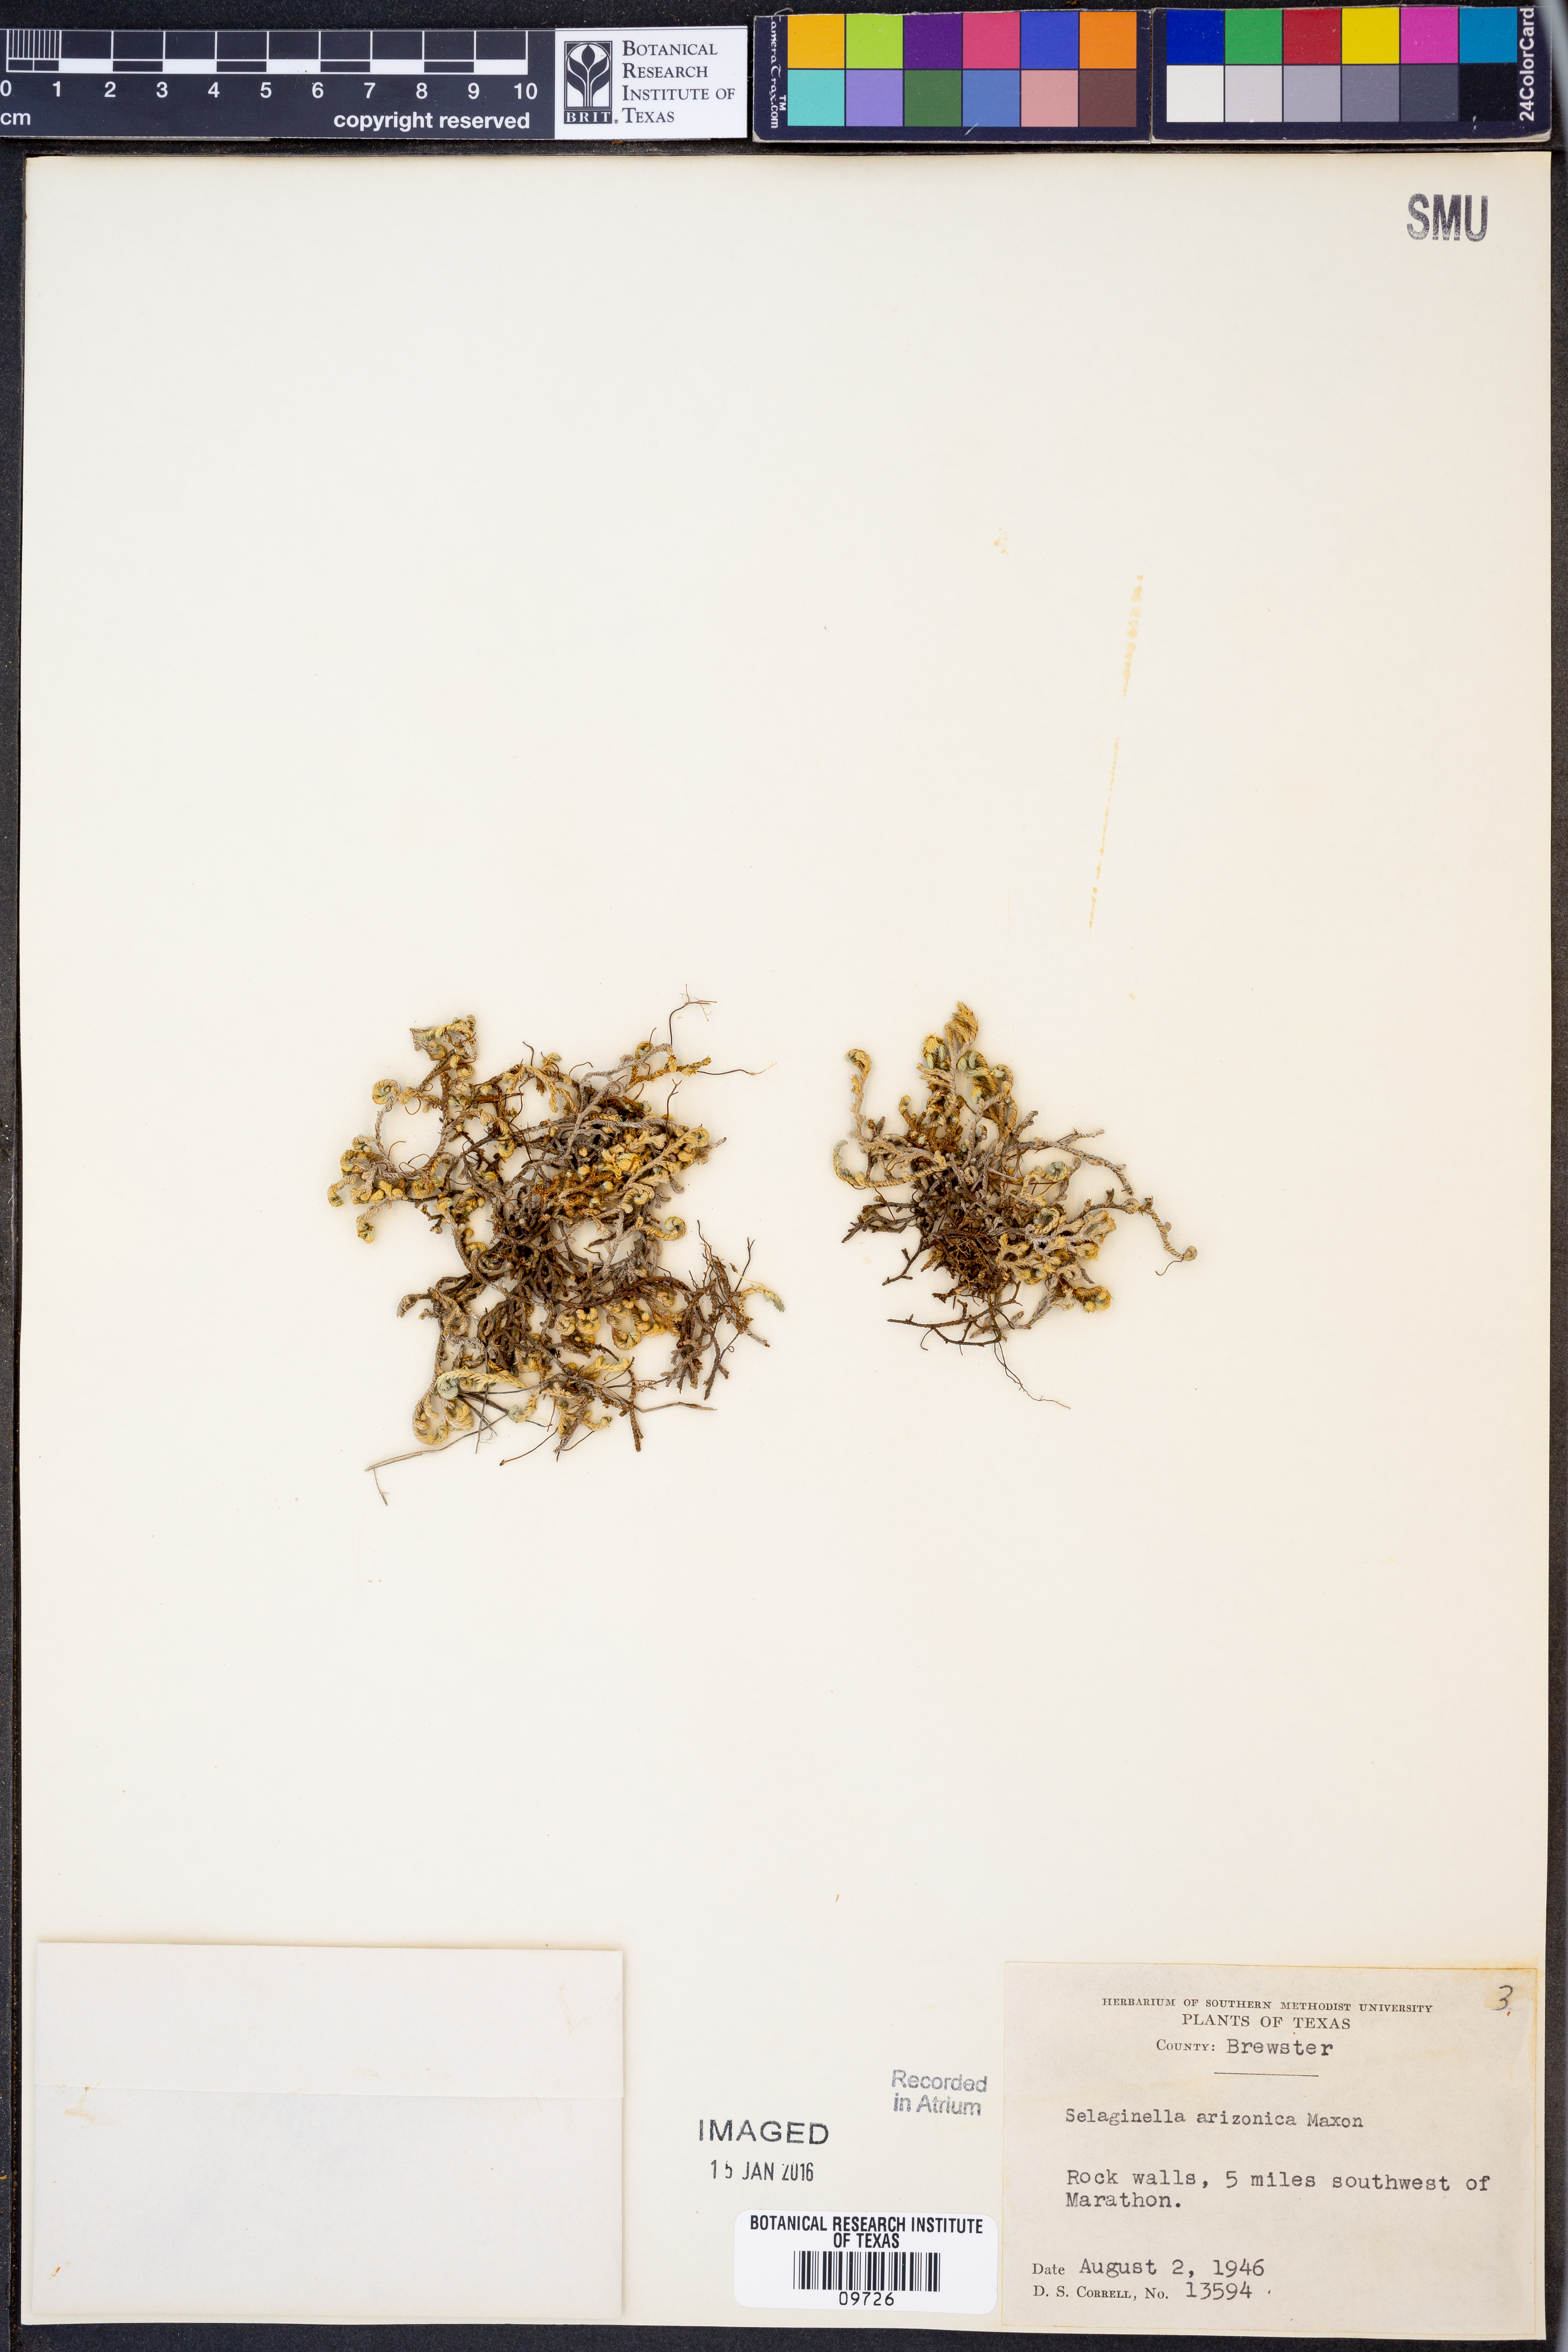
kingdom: Plantae
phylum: Tracheophyta
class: Lycopodiopsida
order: Selaginellales
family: Selaginellaceae
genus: Selaginella
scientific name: Selaginella arizonica
